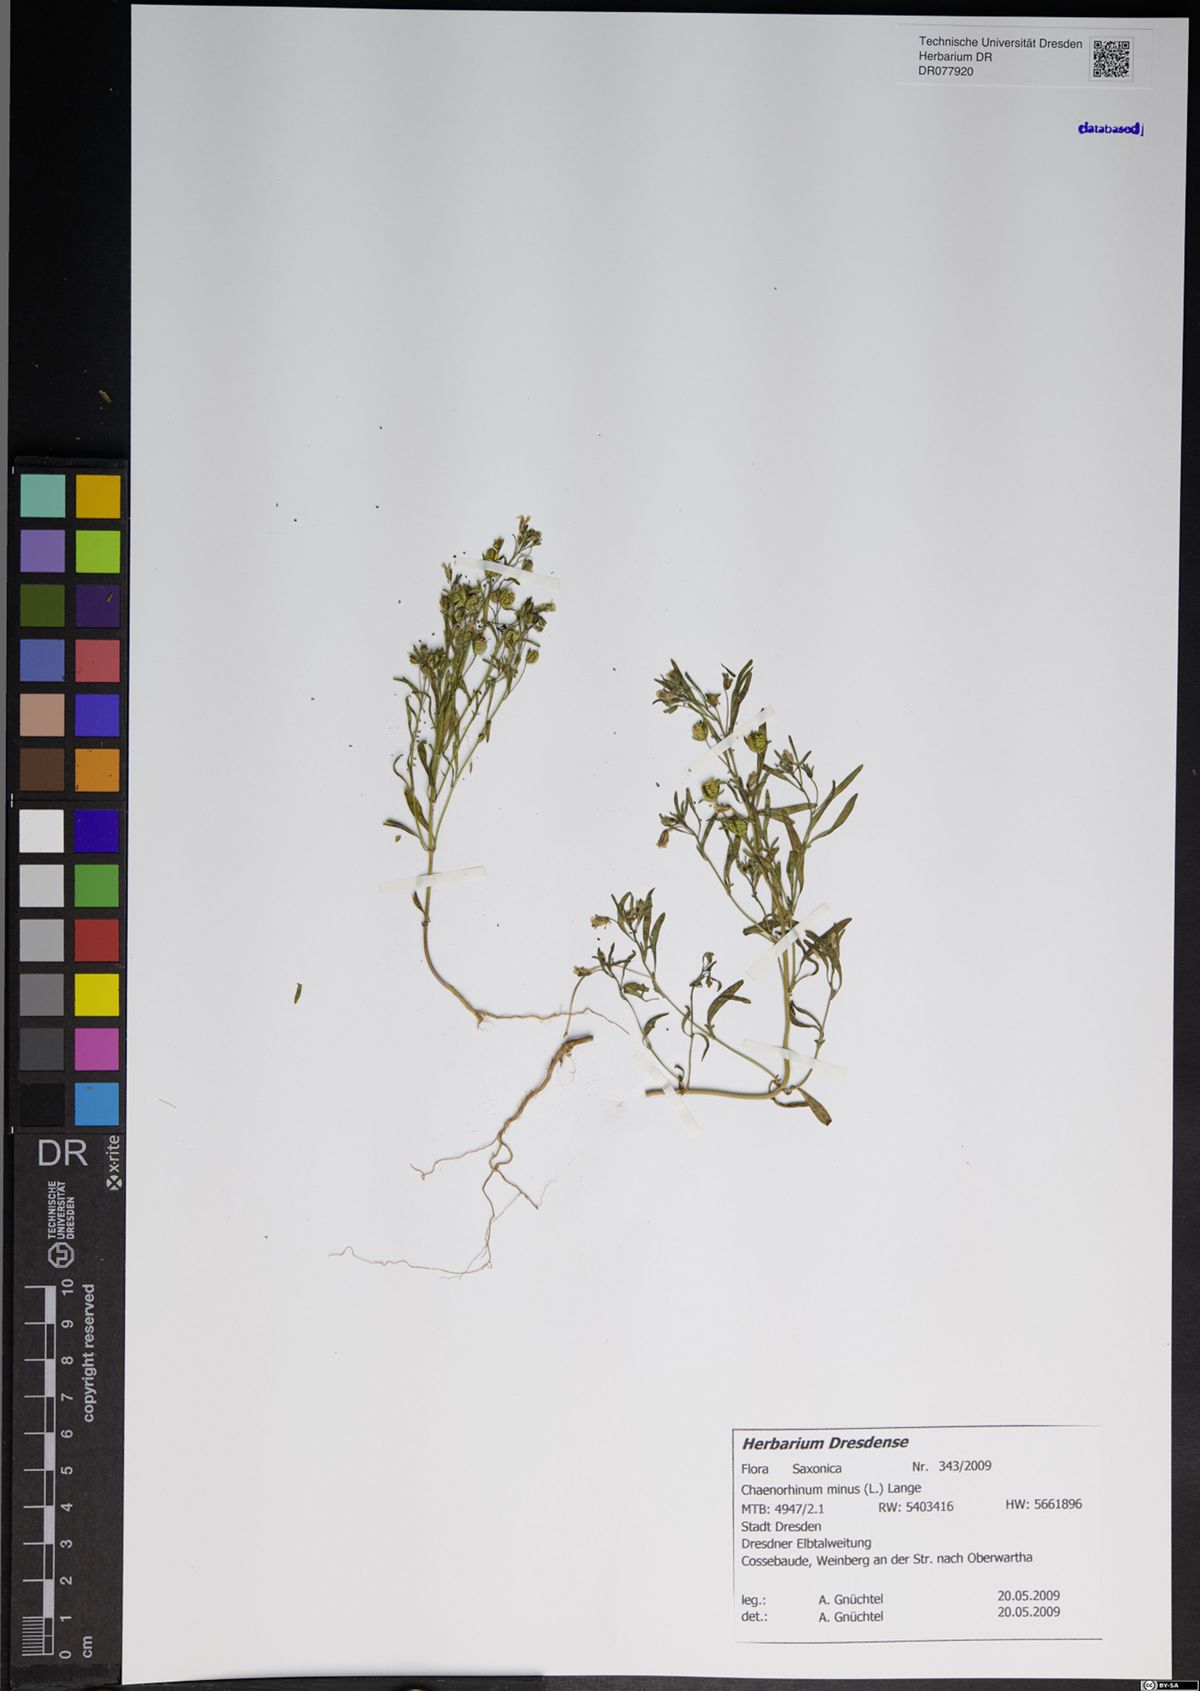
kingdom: Plantae
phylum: Tracheophyta
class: Magnoliopsida
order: Lamiales
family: Plantaginaceae
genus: Chaenorhinum
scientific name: Chaenorhinum minus
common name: Dwarf snapdragon
